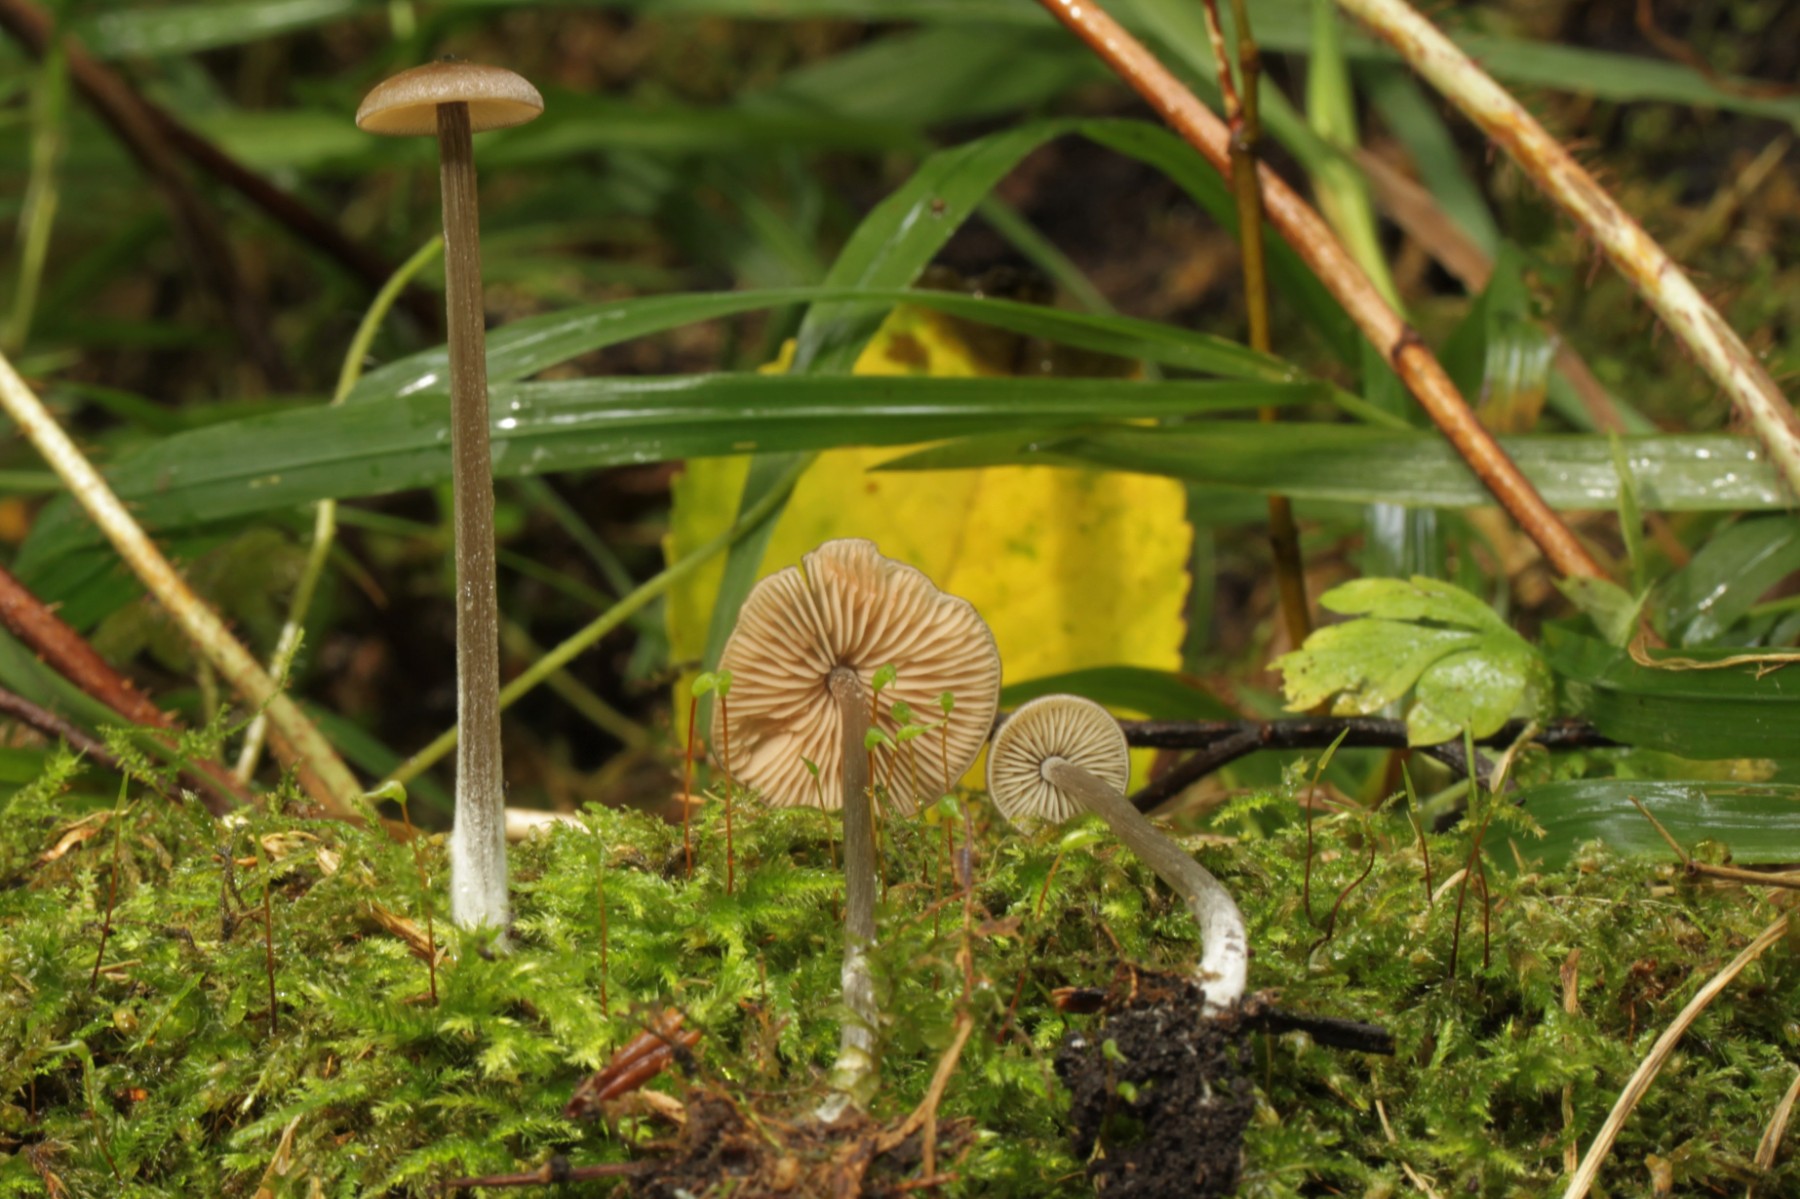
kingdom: Fungi
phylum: Basidiomycota
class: Agaricomycetes
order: Agaricales
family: Entolomataceae
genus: Entoloma
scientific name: Entoloma
